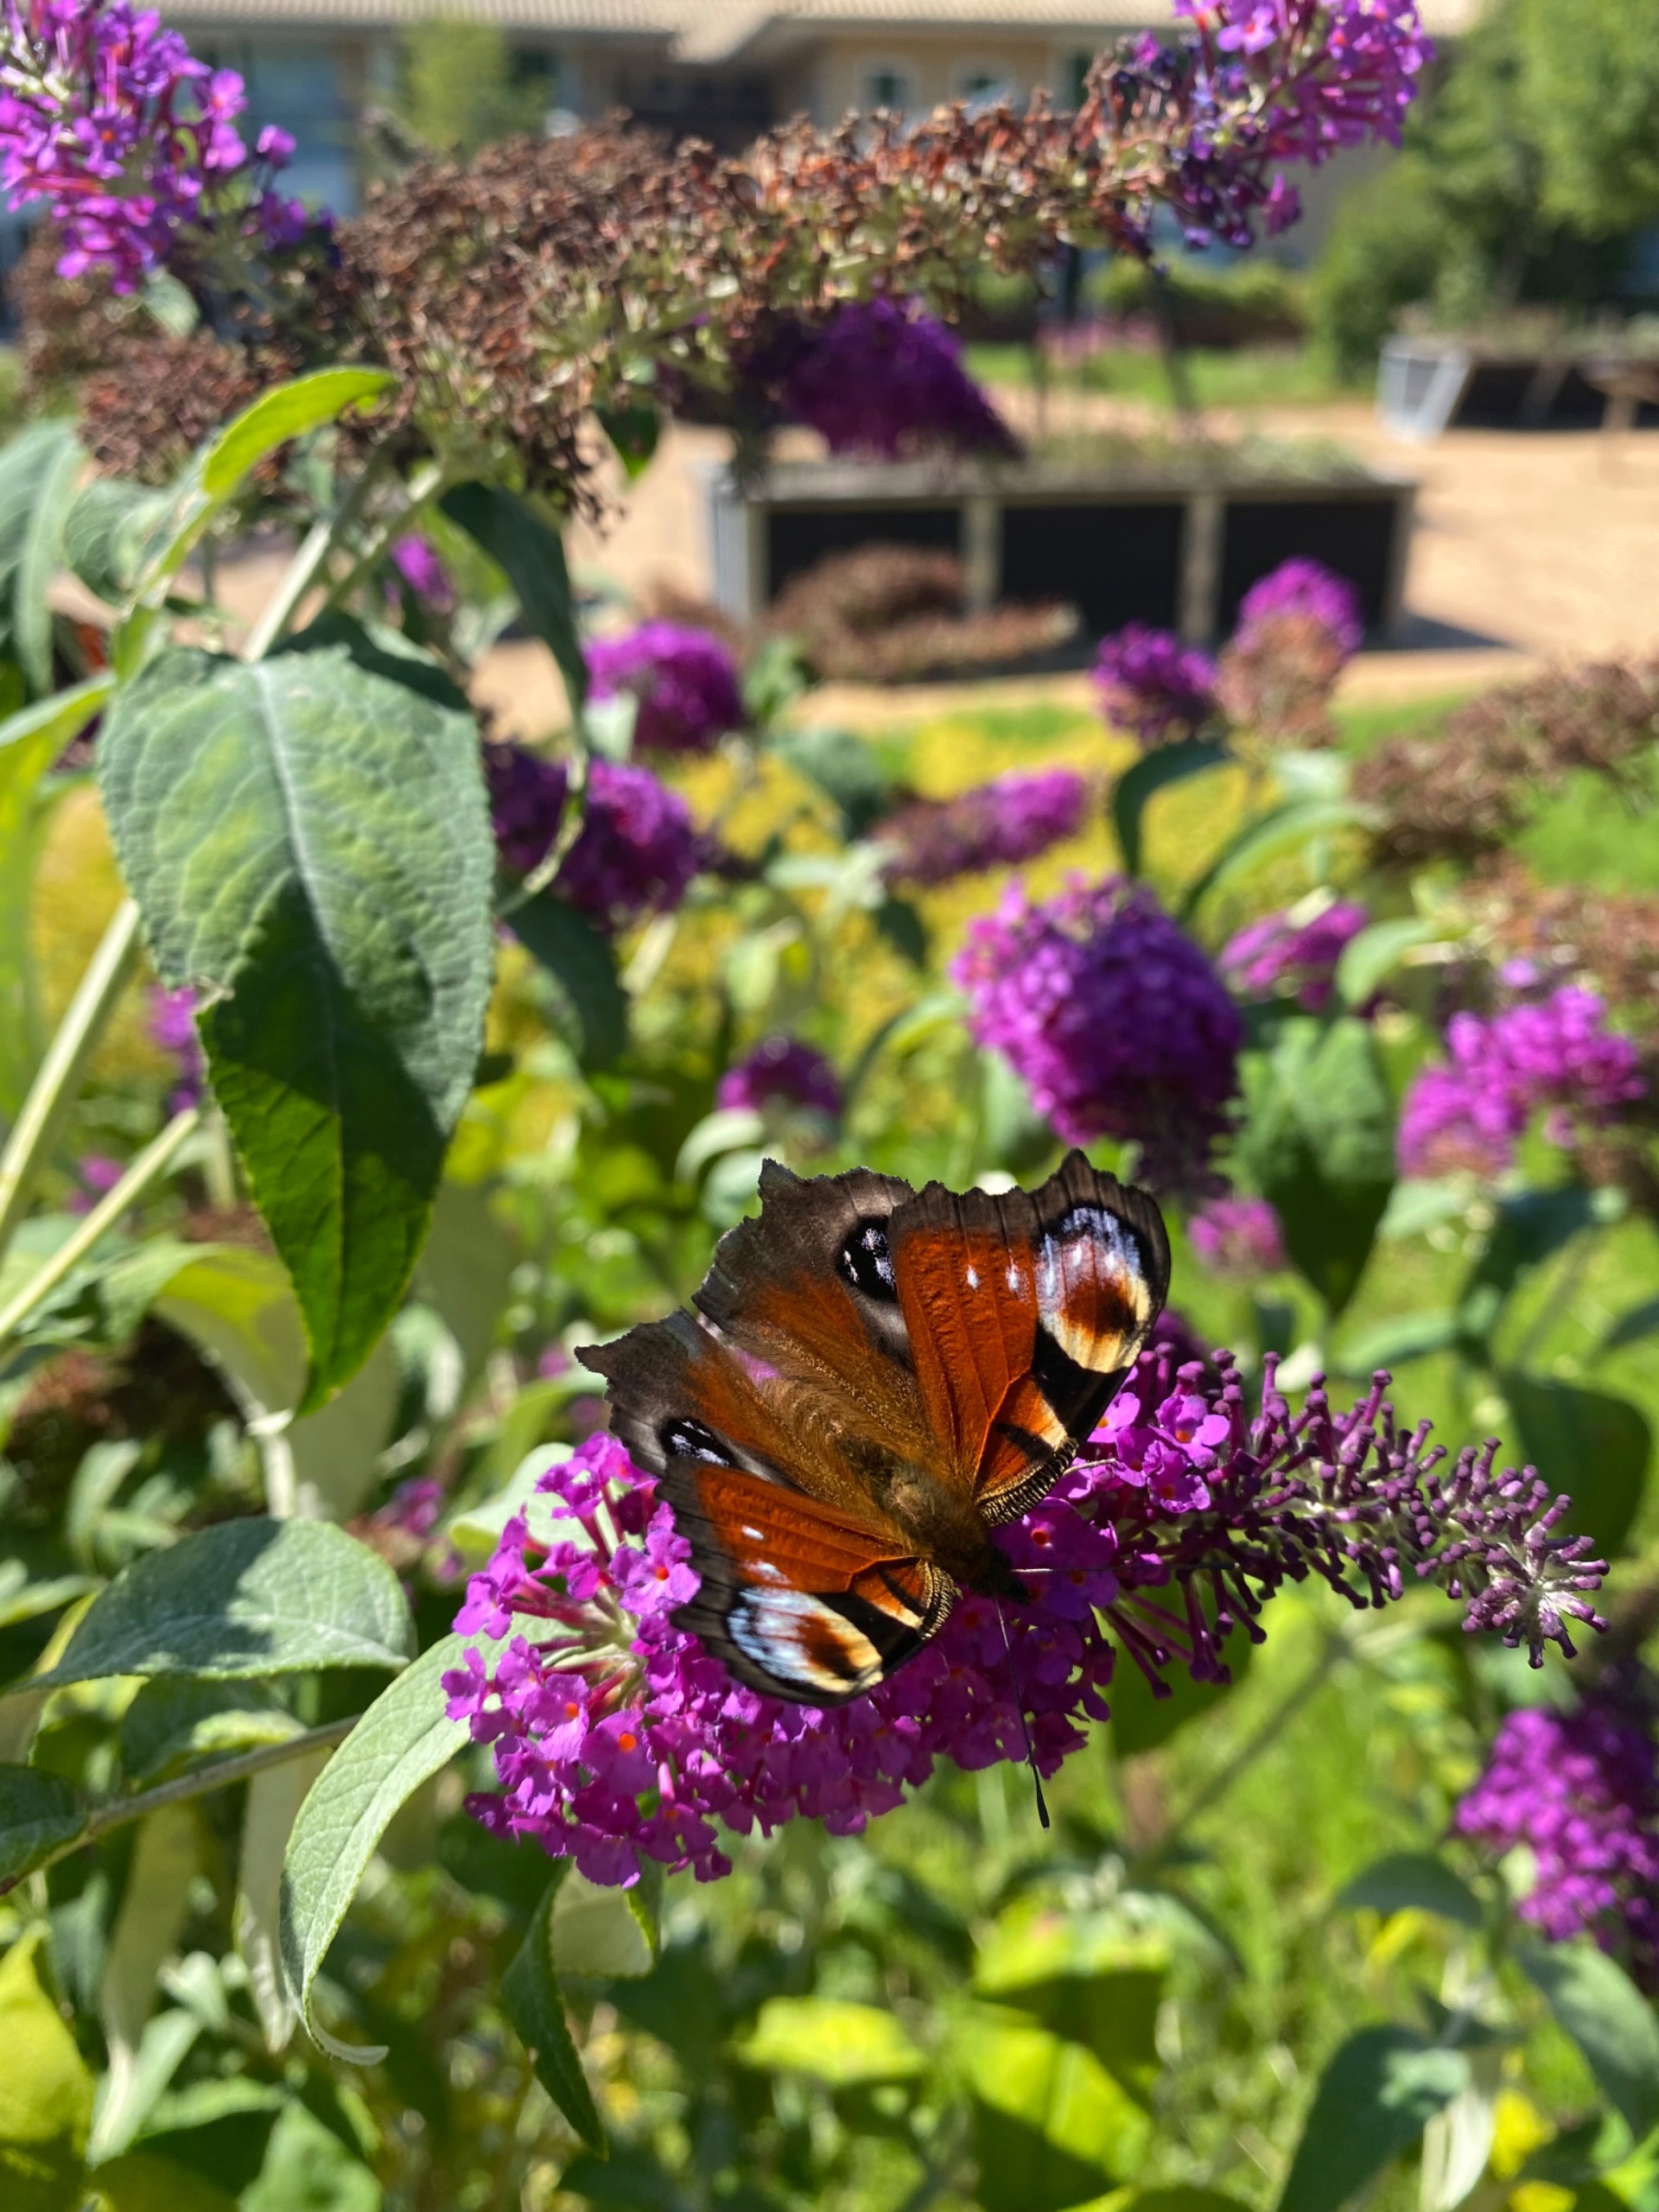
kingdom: Animalia
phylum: Arthropoda
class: Insecta
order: Lepidoptera
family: Nymphalidae
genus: Aglais
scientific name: Aglais io
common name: Dagpåfugleøje
